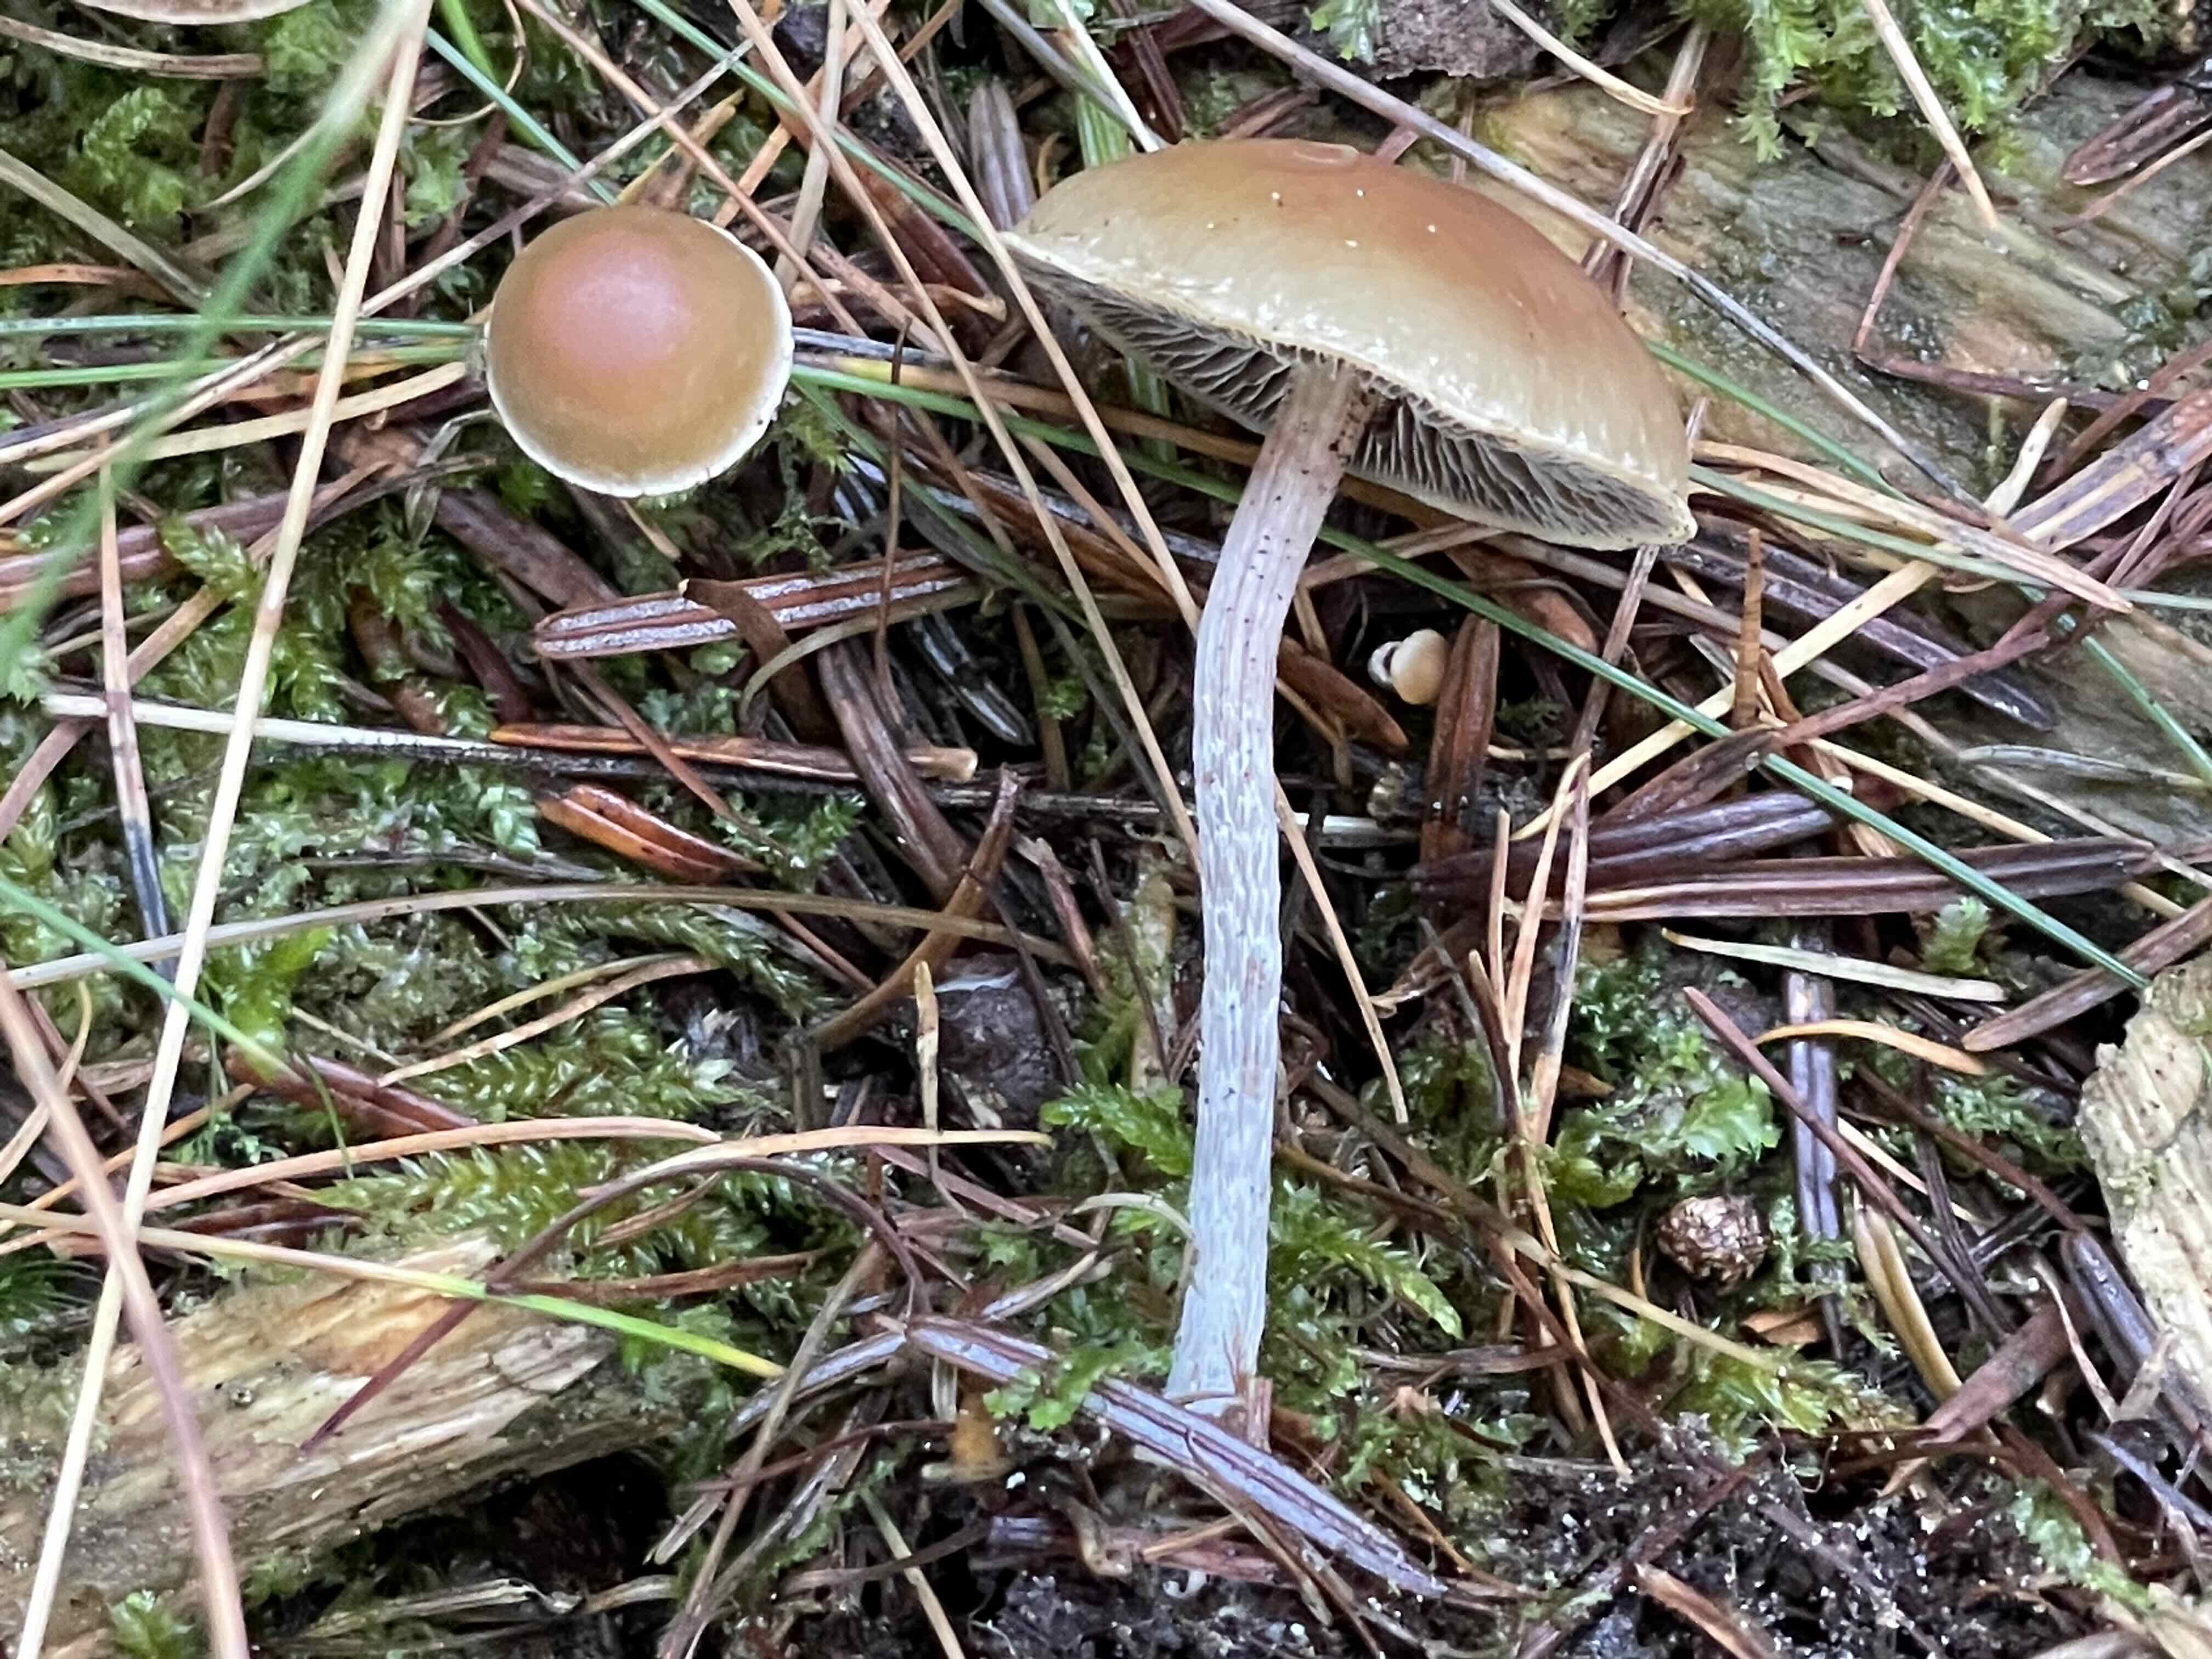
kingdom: Fungi
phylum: Basidiomycota
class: Agaricomycetes
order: Agaricales
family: Strophariaceae
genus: Hypholoma
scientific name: Hypholoma marginatum
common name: enlig svovlhat
